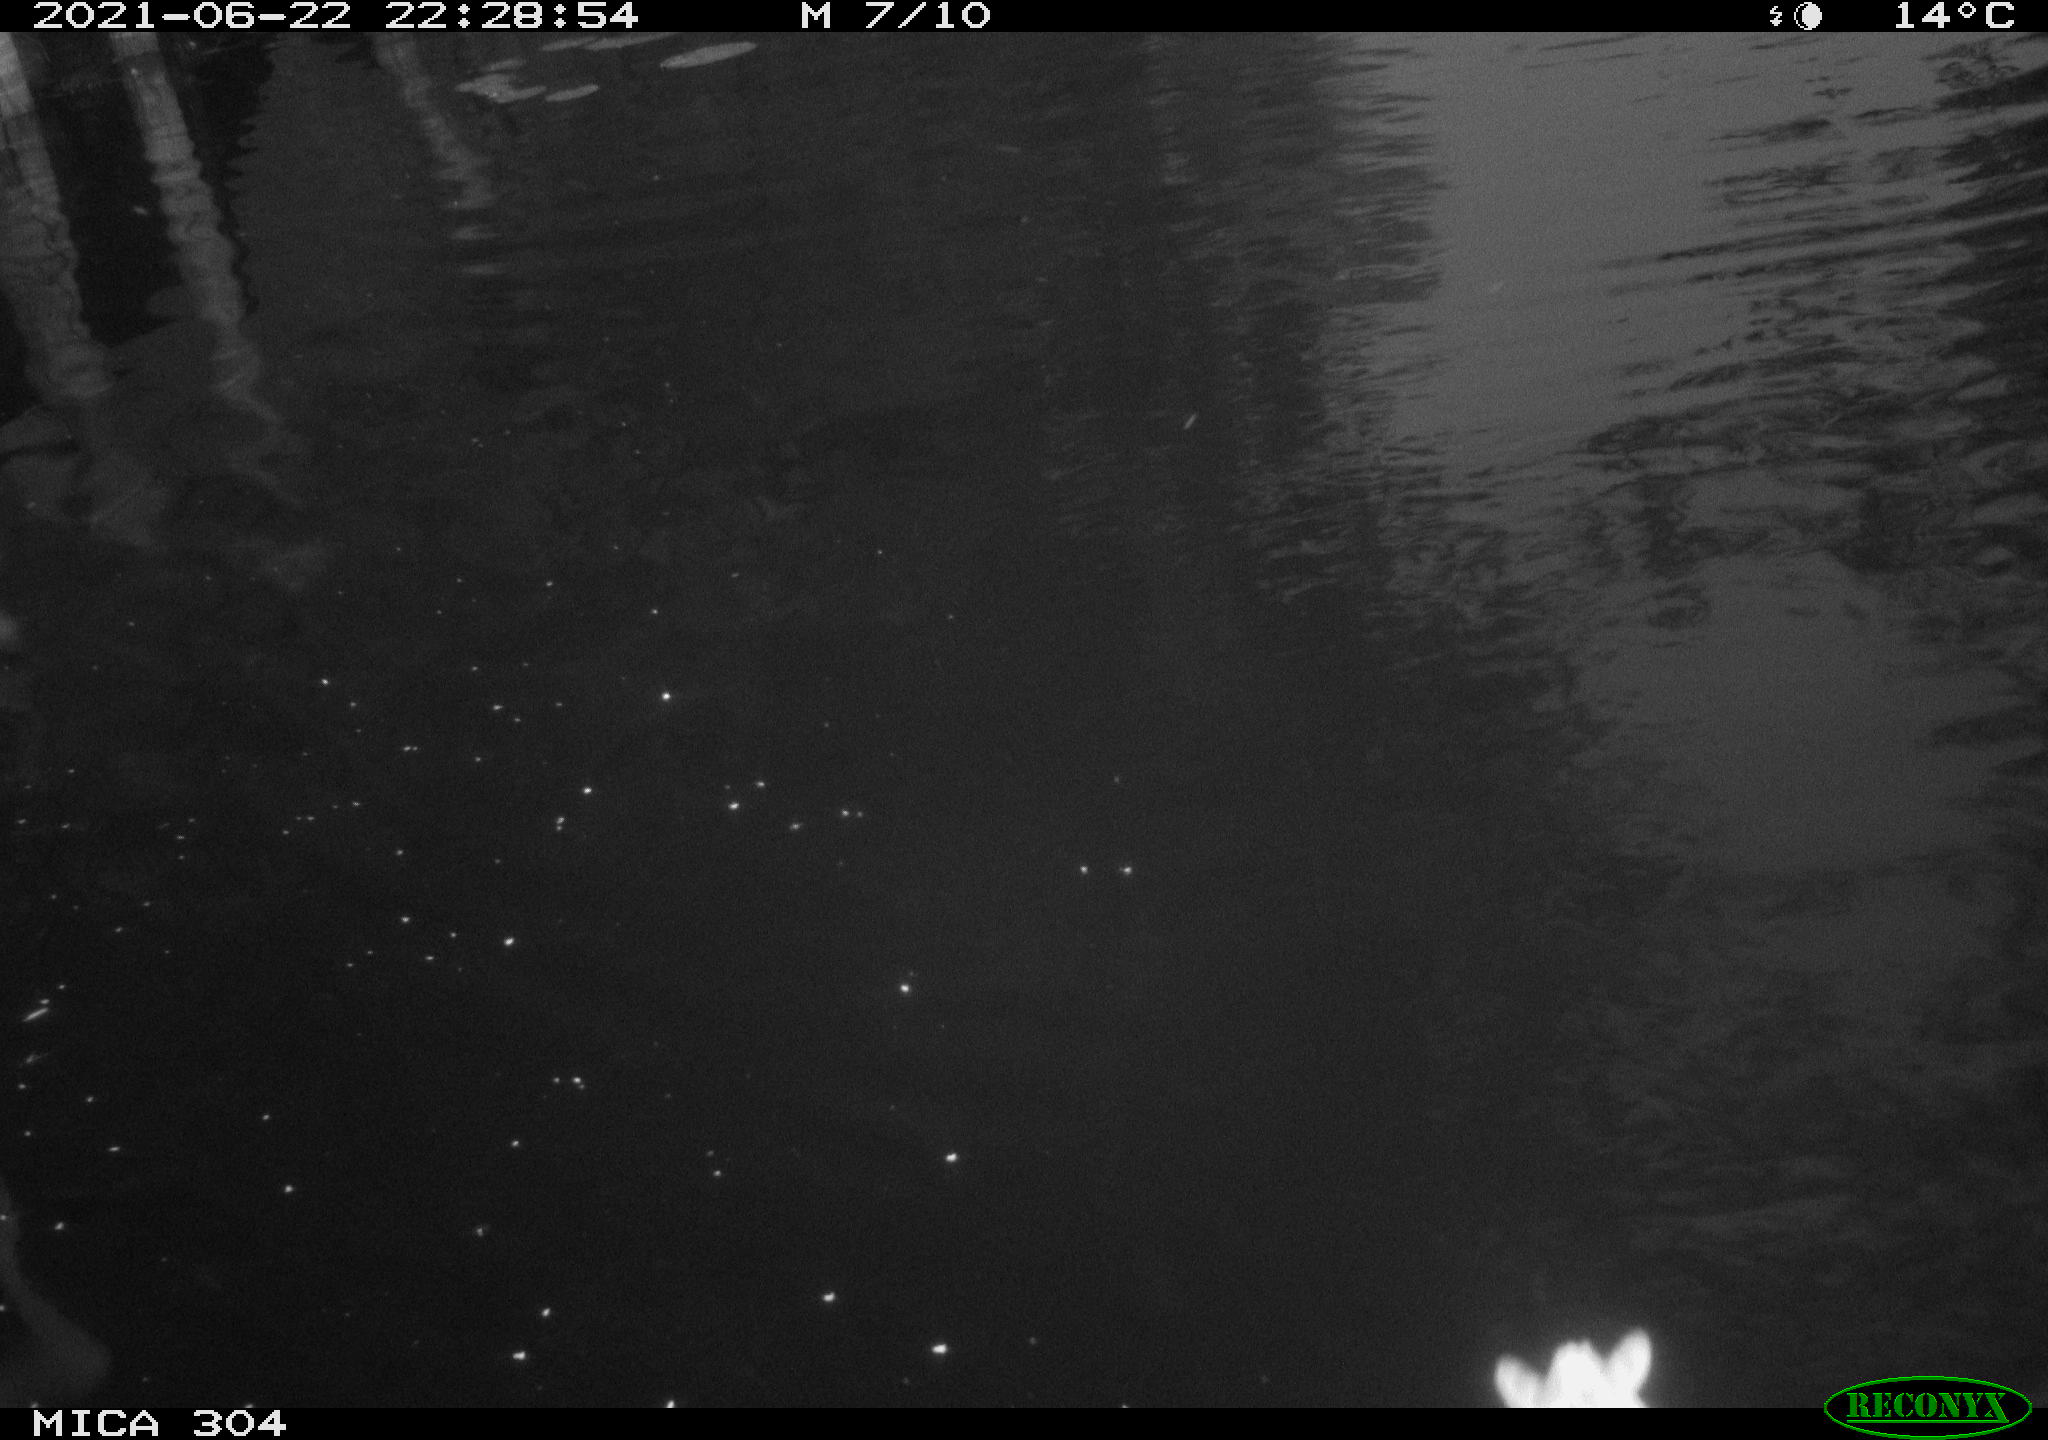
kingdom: Animalia
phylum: Chordata
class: Aves
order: Anseriformes
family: Anatidae
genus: Anas
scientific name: Anas platyrhynchos
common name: Mallard
